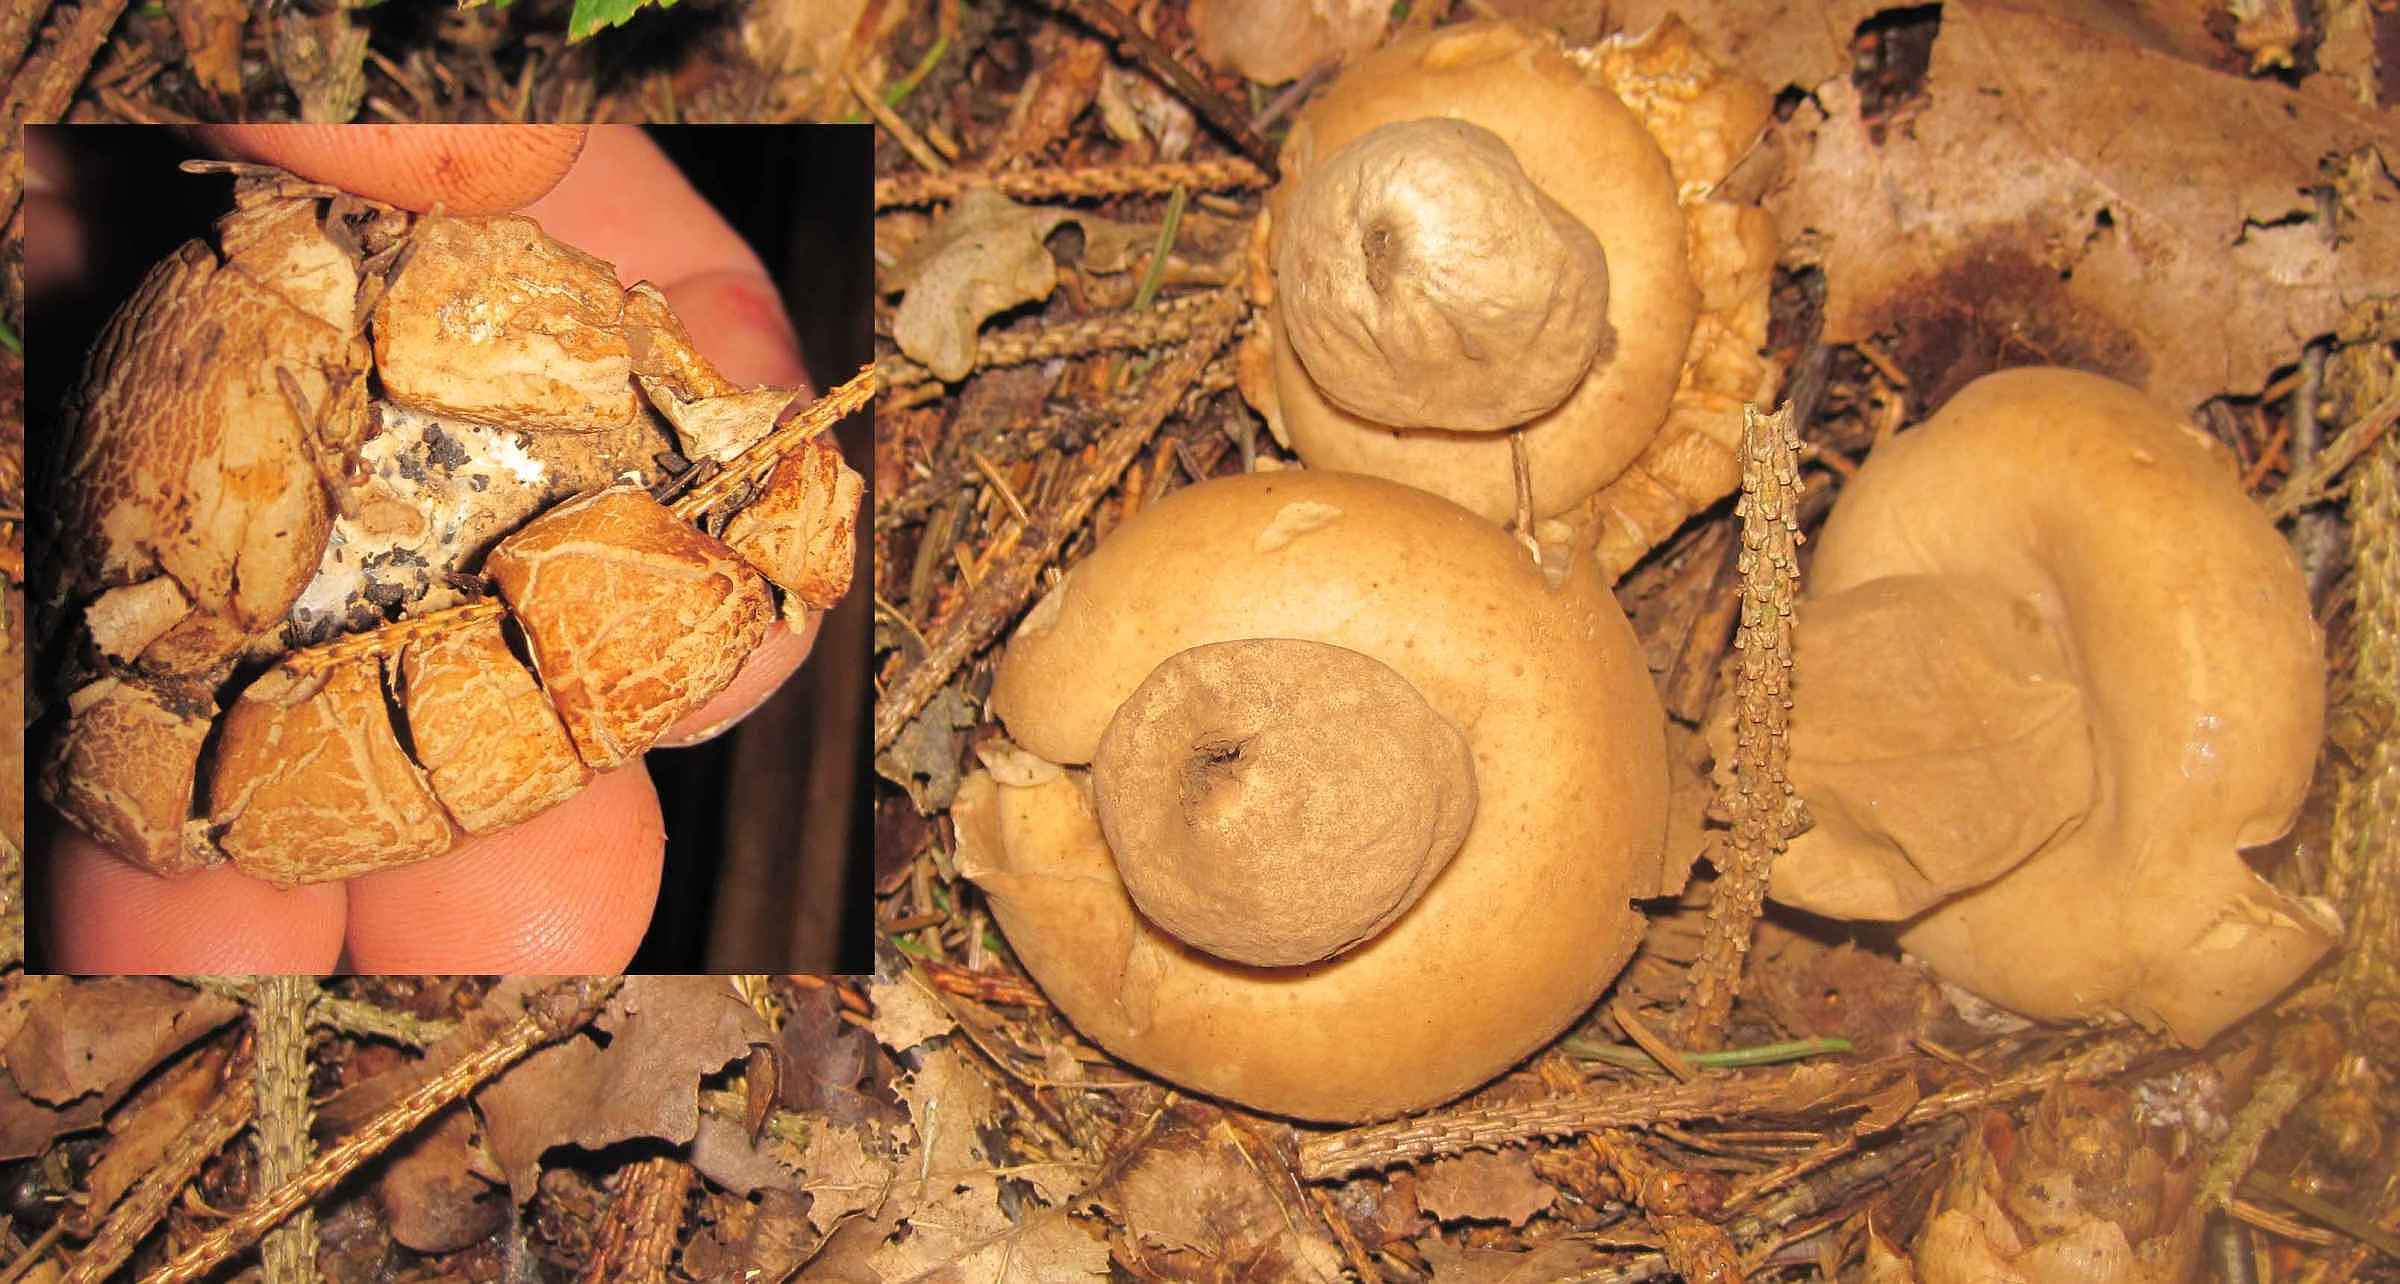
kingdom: Fungi
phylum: Basidiomycota
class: Agaricomycetes
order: Geastrales
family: Geastraceae
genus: Geastrum
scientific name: Geastrum fimbriatum
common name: frynset stjernebold
